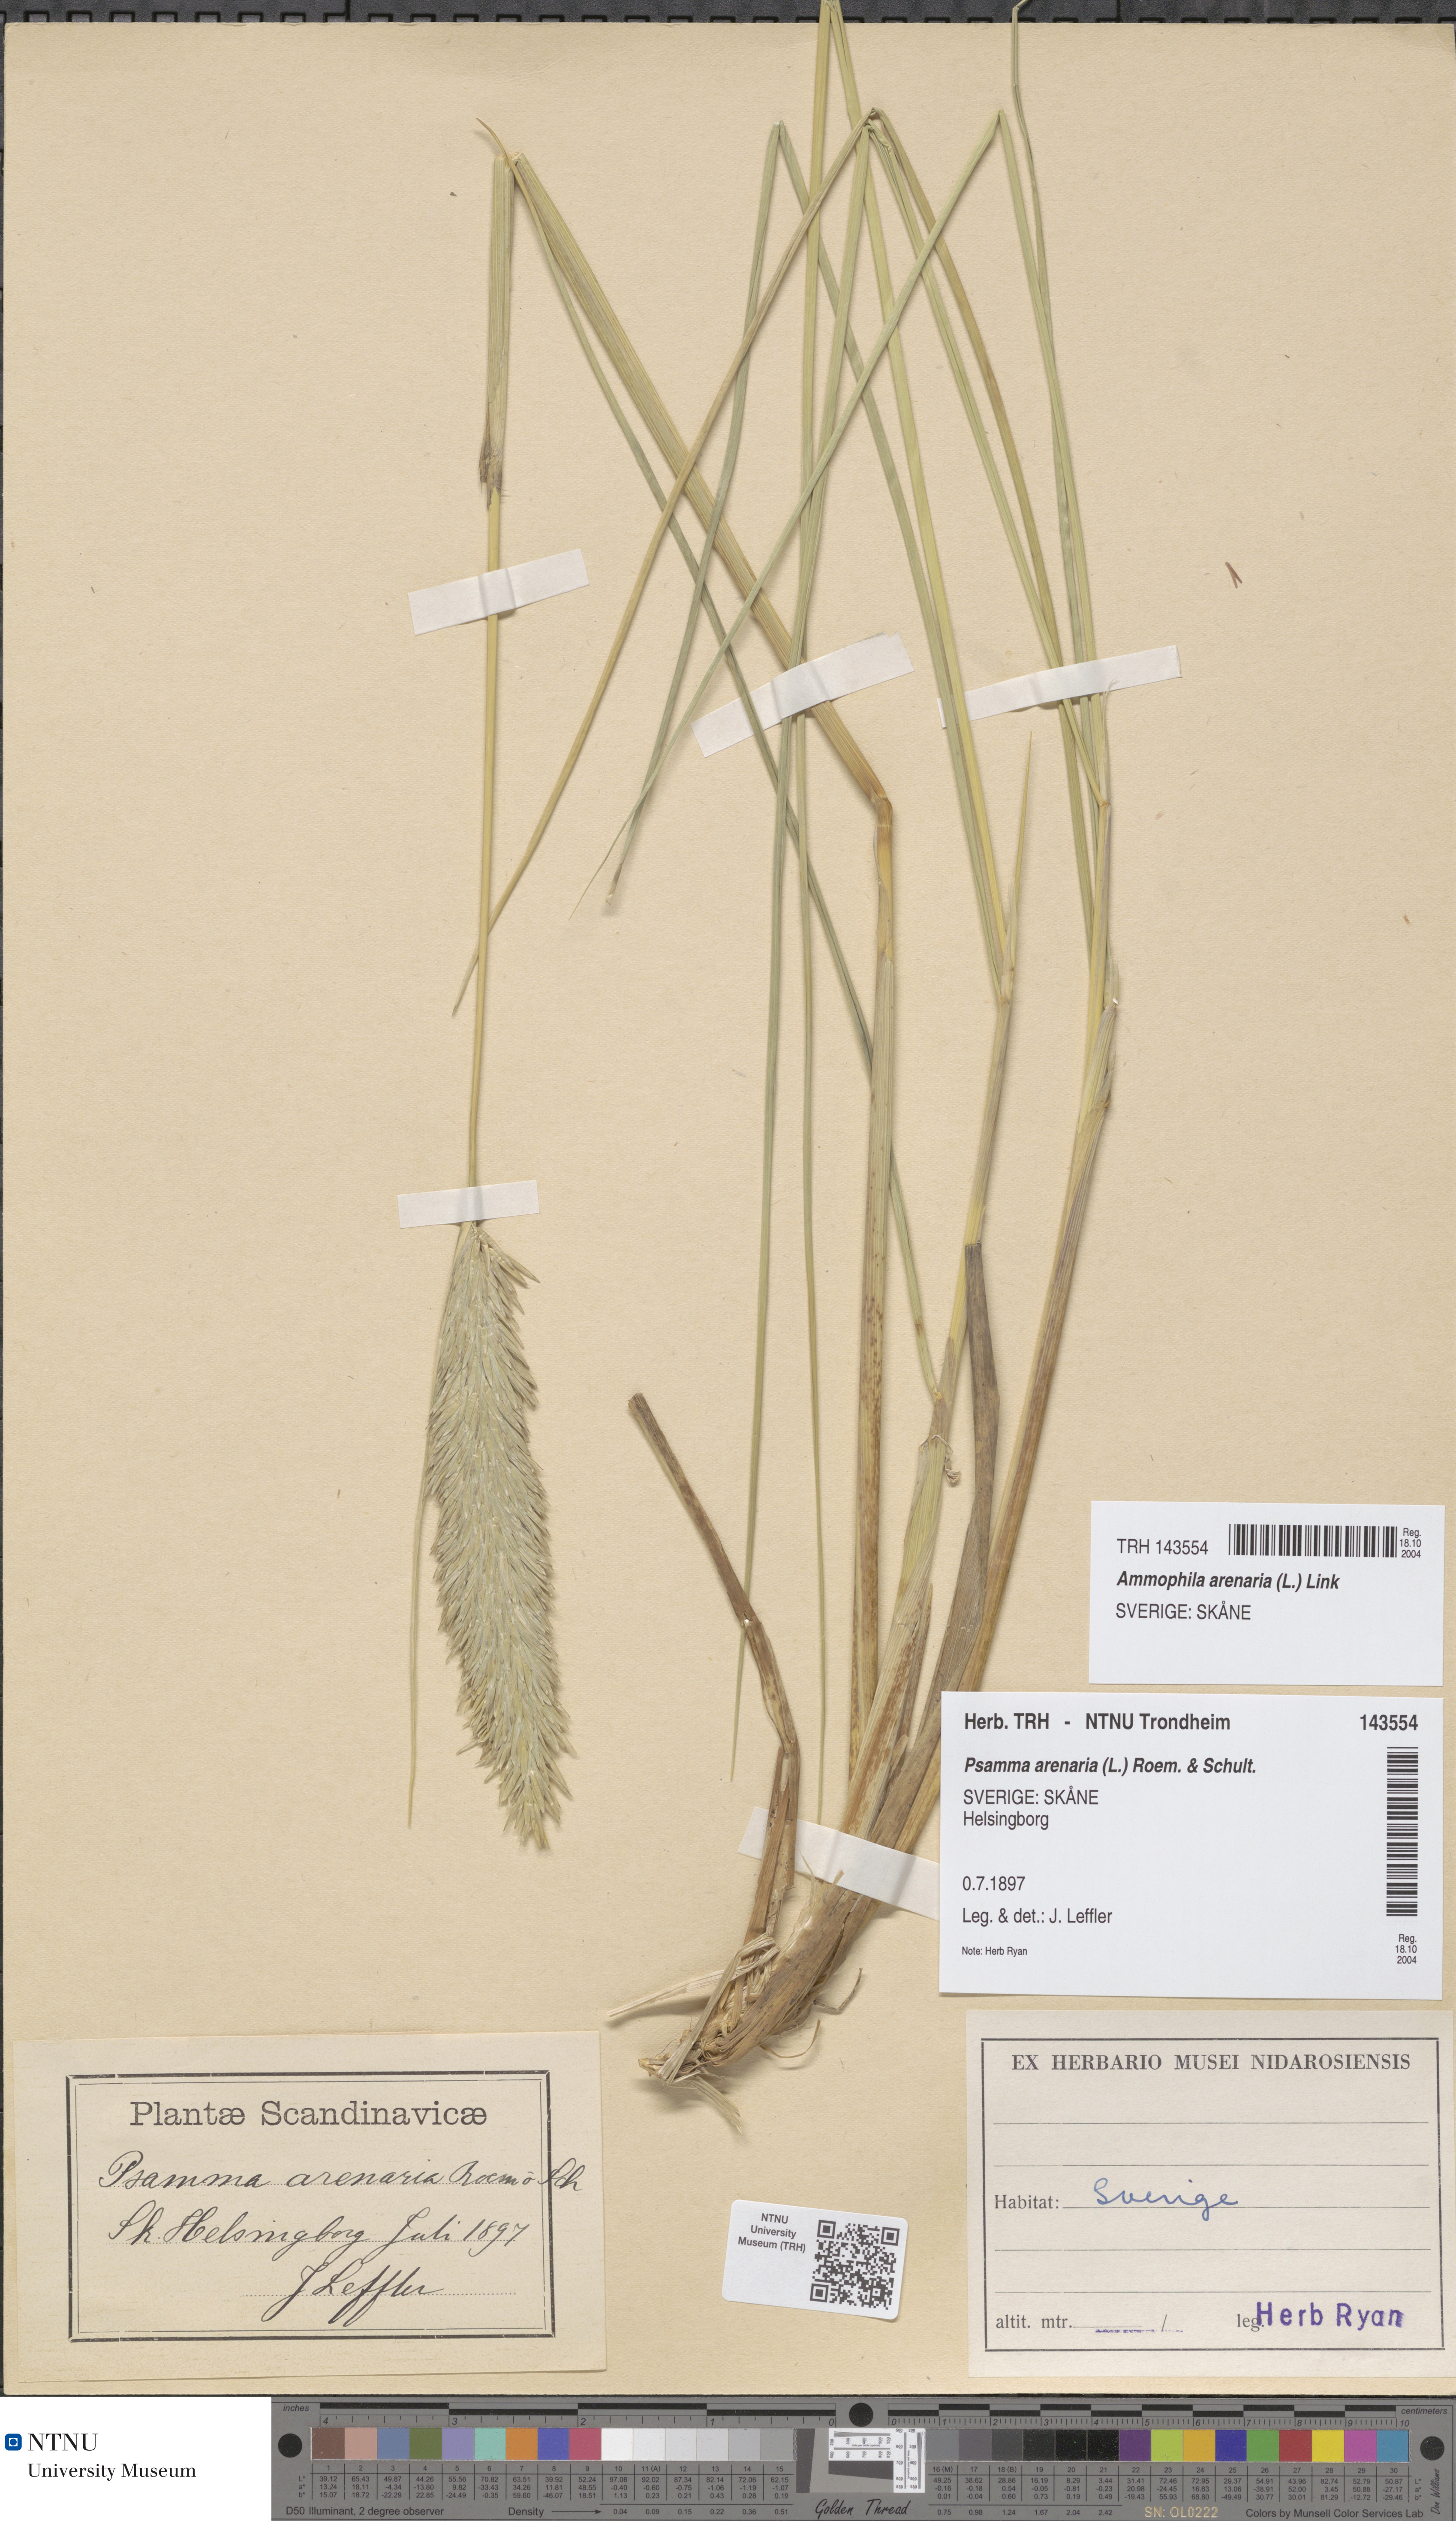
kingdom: Plantae
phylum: Tracheophyta
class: Liliopsida
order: Poales
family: Poaceae
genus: Calamagrostis
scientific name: Calamagrostis arenaria
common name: European beachgrass
